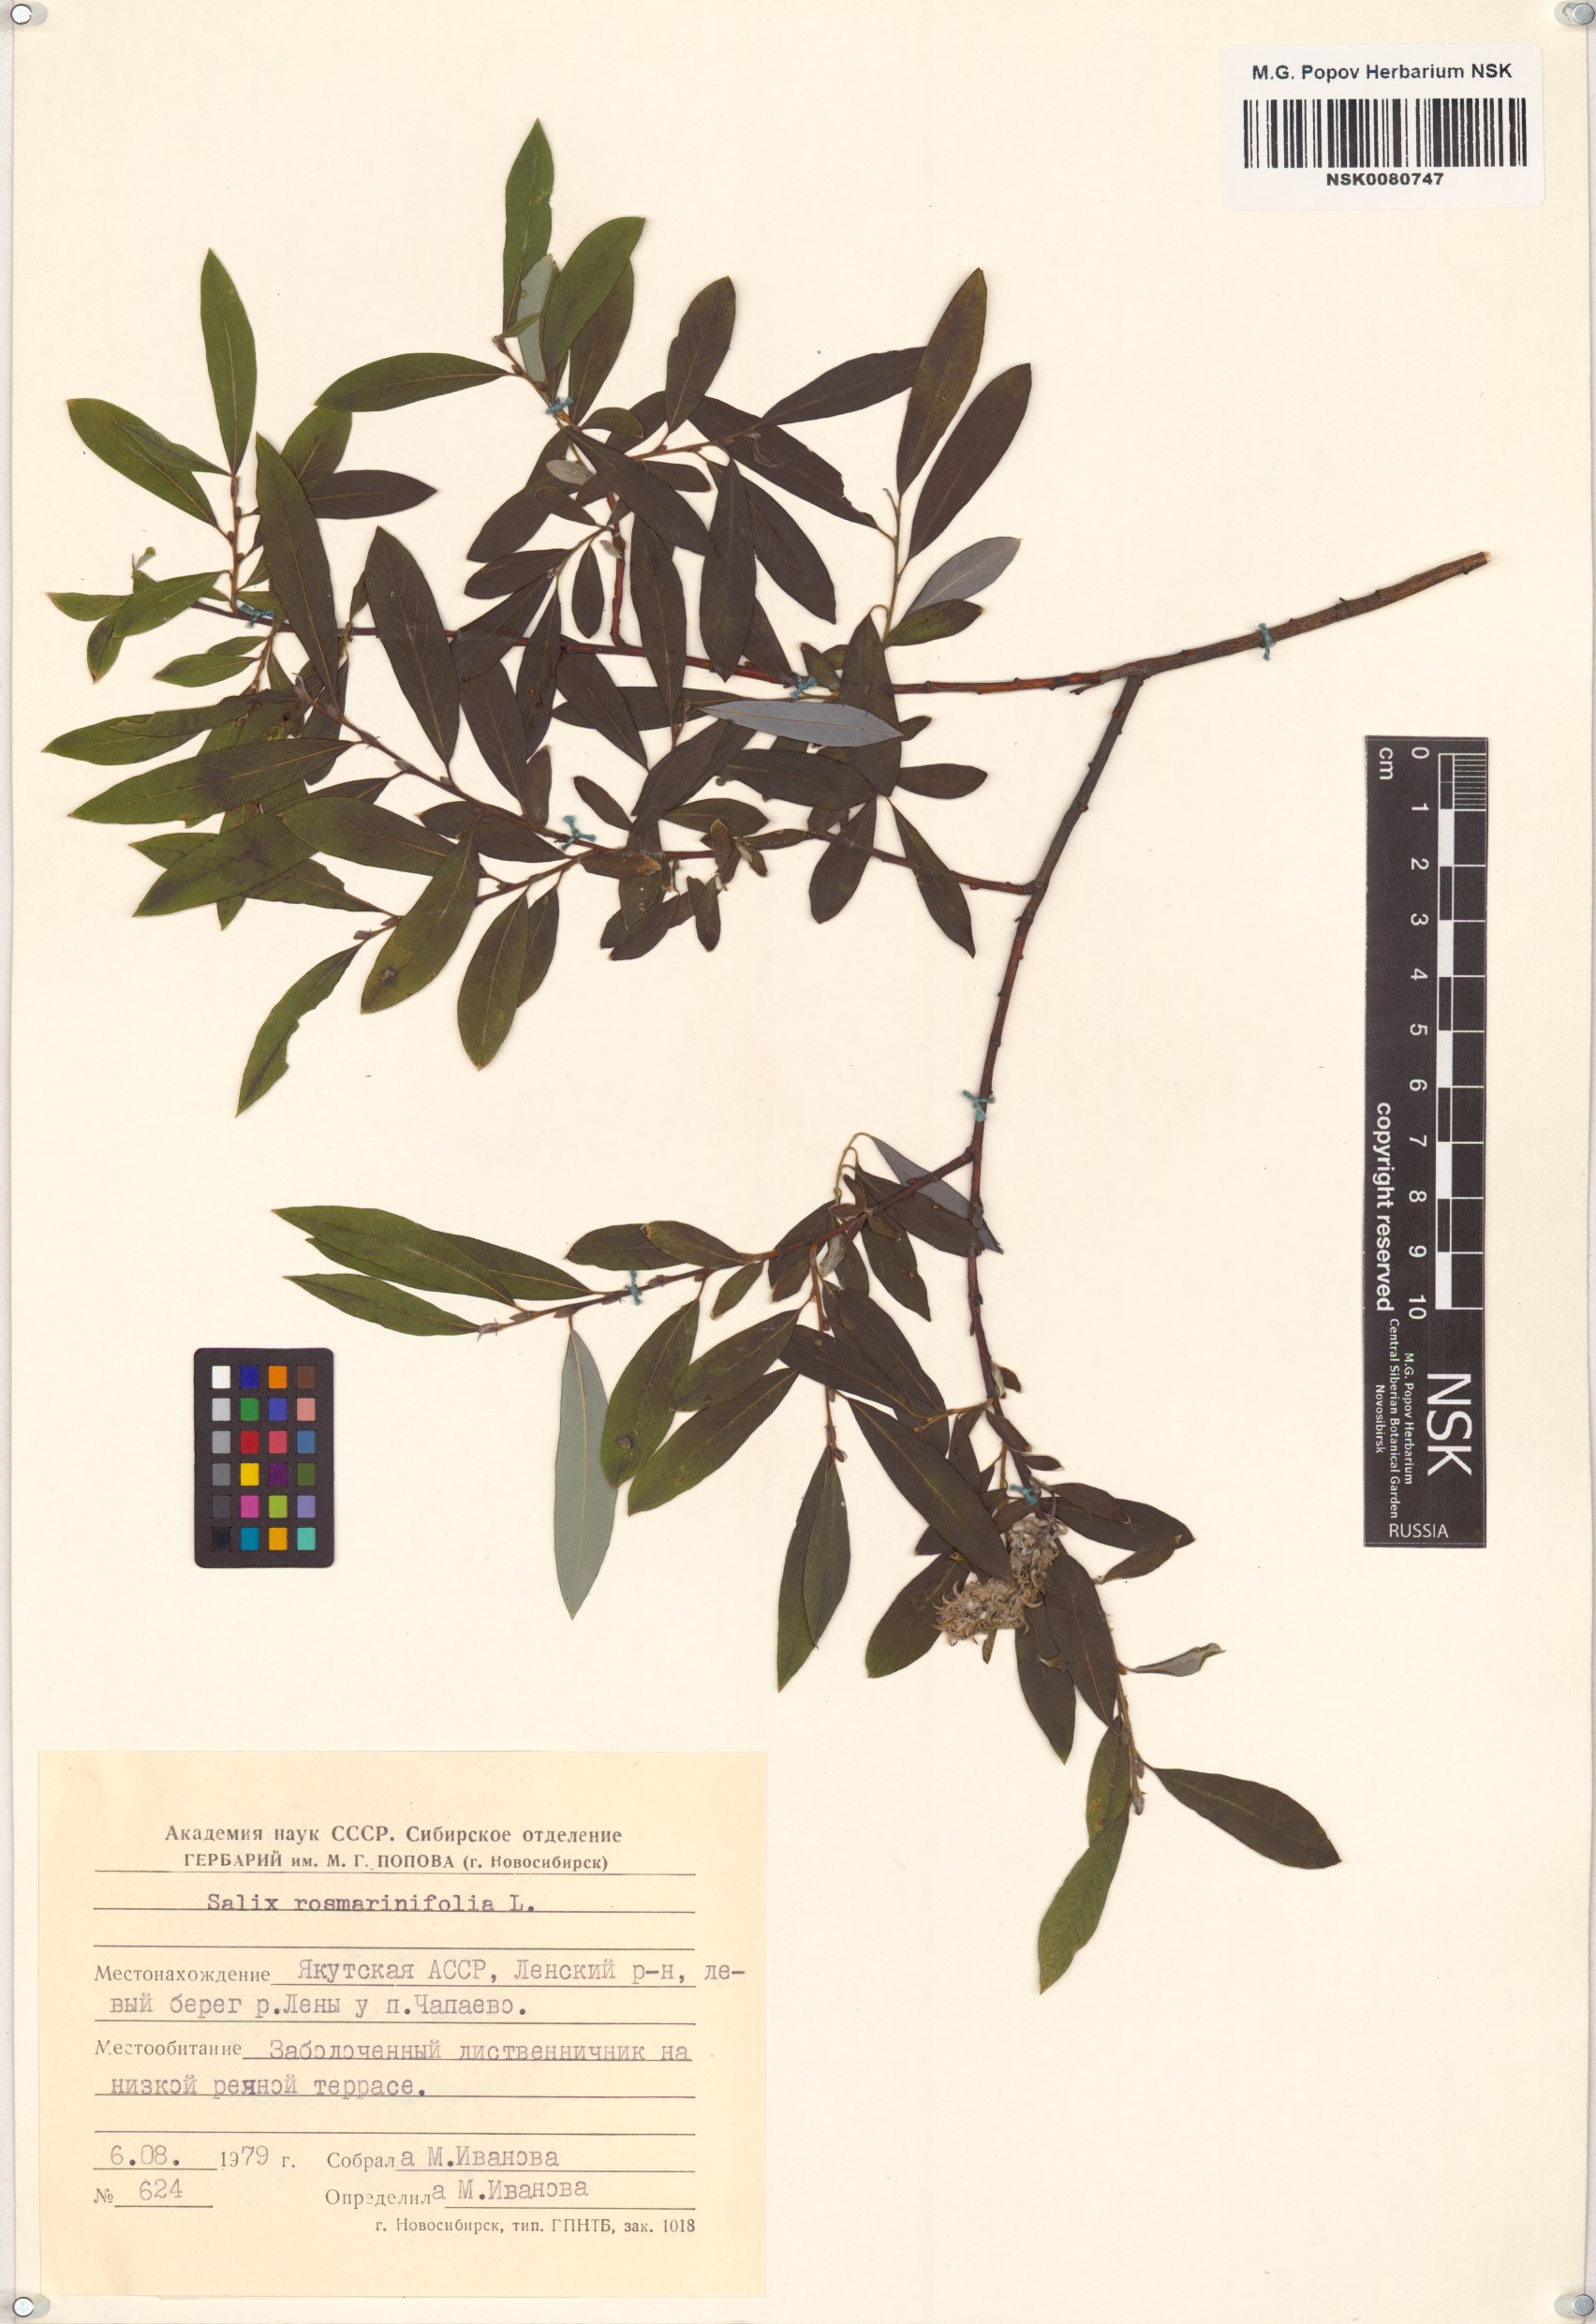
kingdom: Plantae
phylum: Tracheophyta
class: Magnoliopsida
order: Malpighiales
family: Salicaceae
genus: Salix
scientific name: Salix rosmarinifolia
